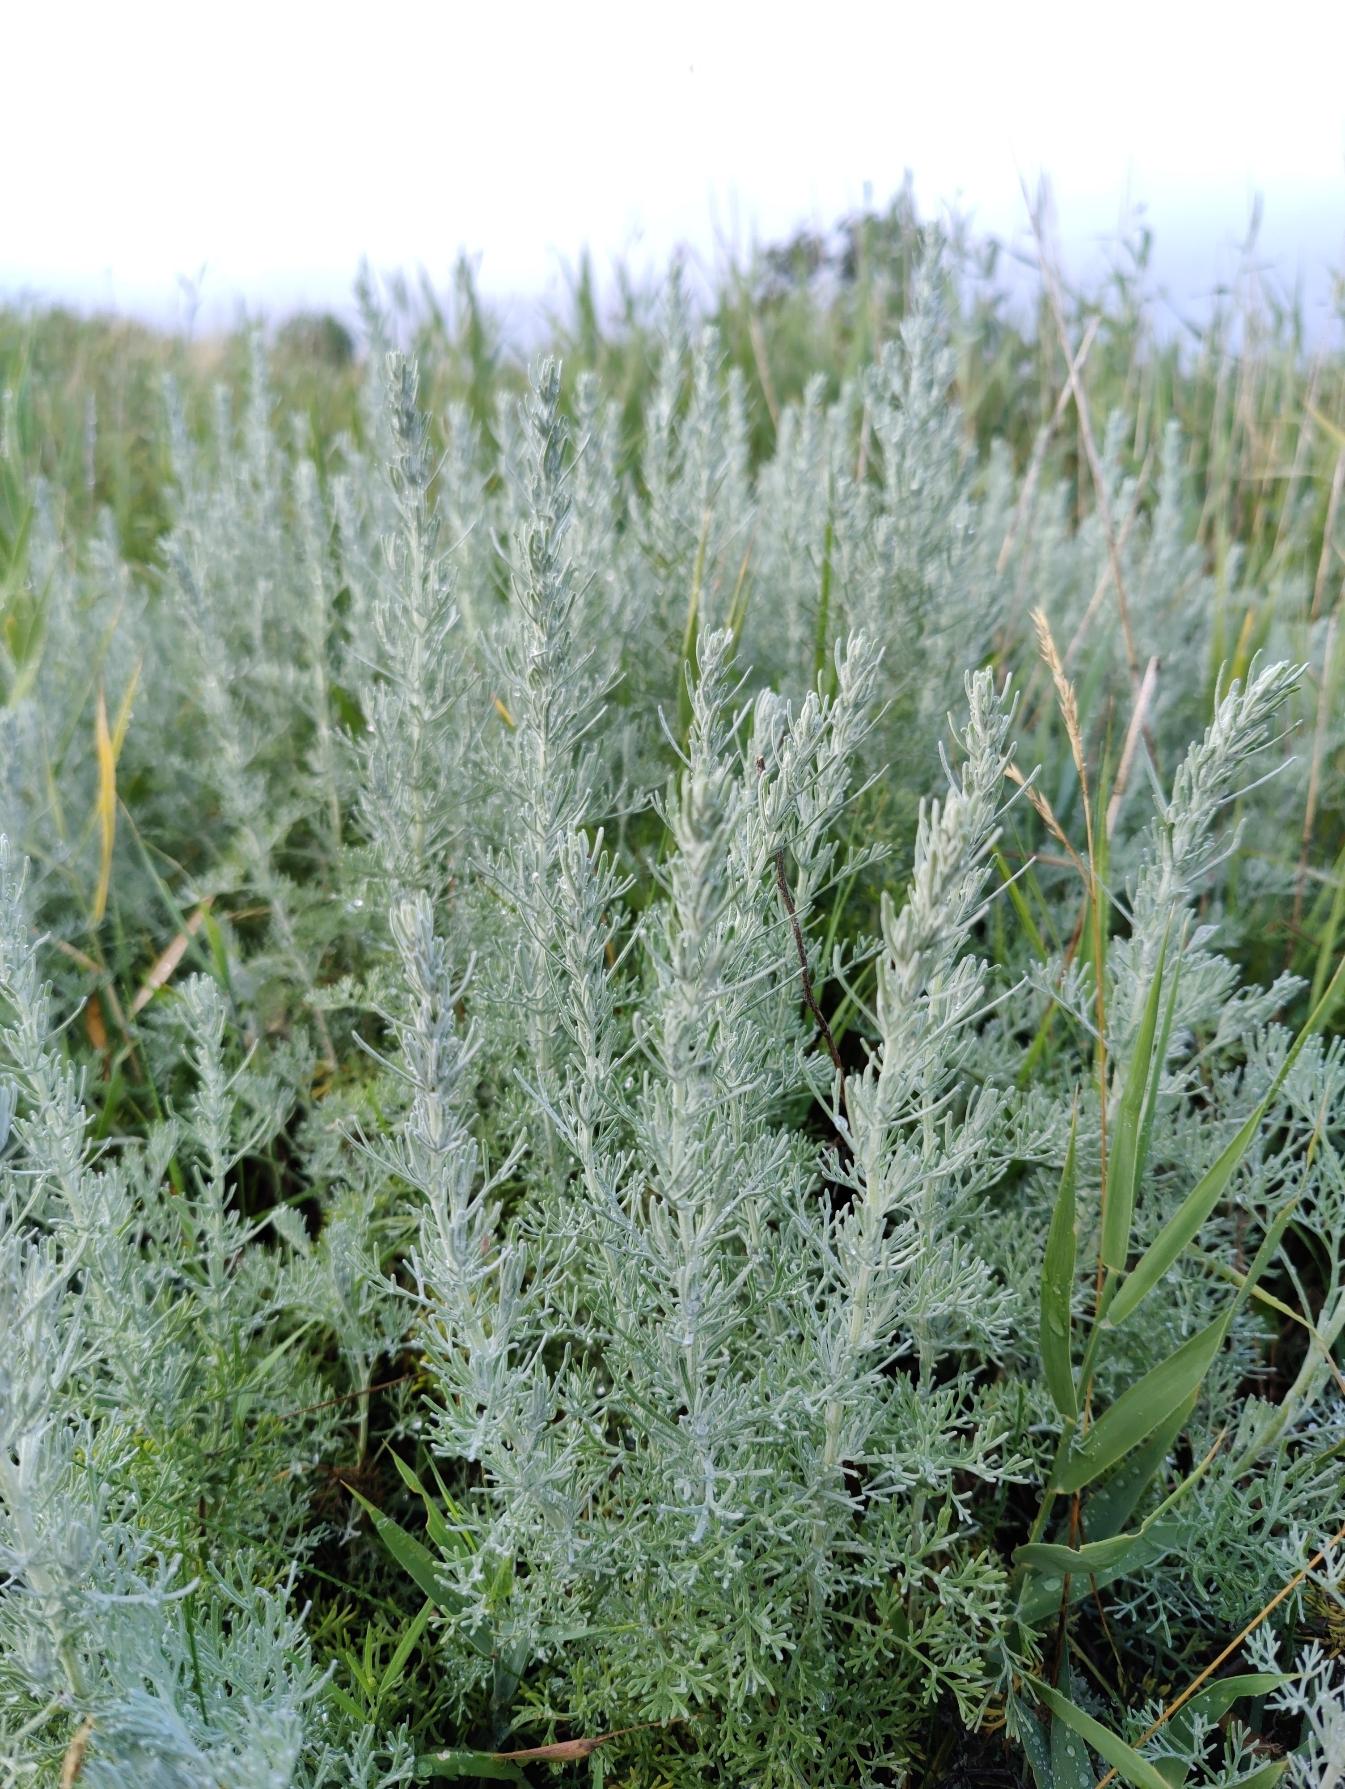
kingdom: Plantae
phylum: Tracheophyta
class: Magnoliopsida
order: Asterales
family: Asteraceae
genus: Artemisia
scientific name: Artemisia maritima
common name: Strandmalurt
